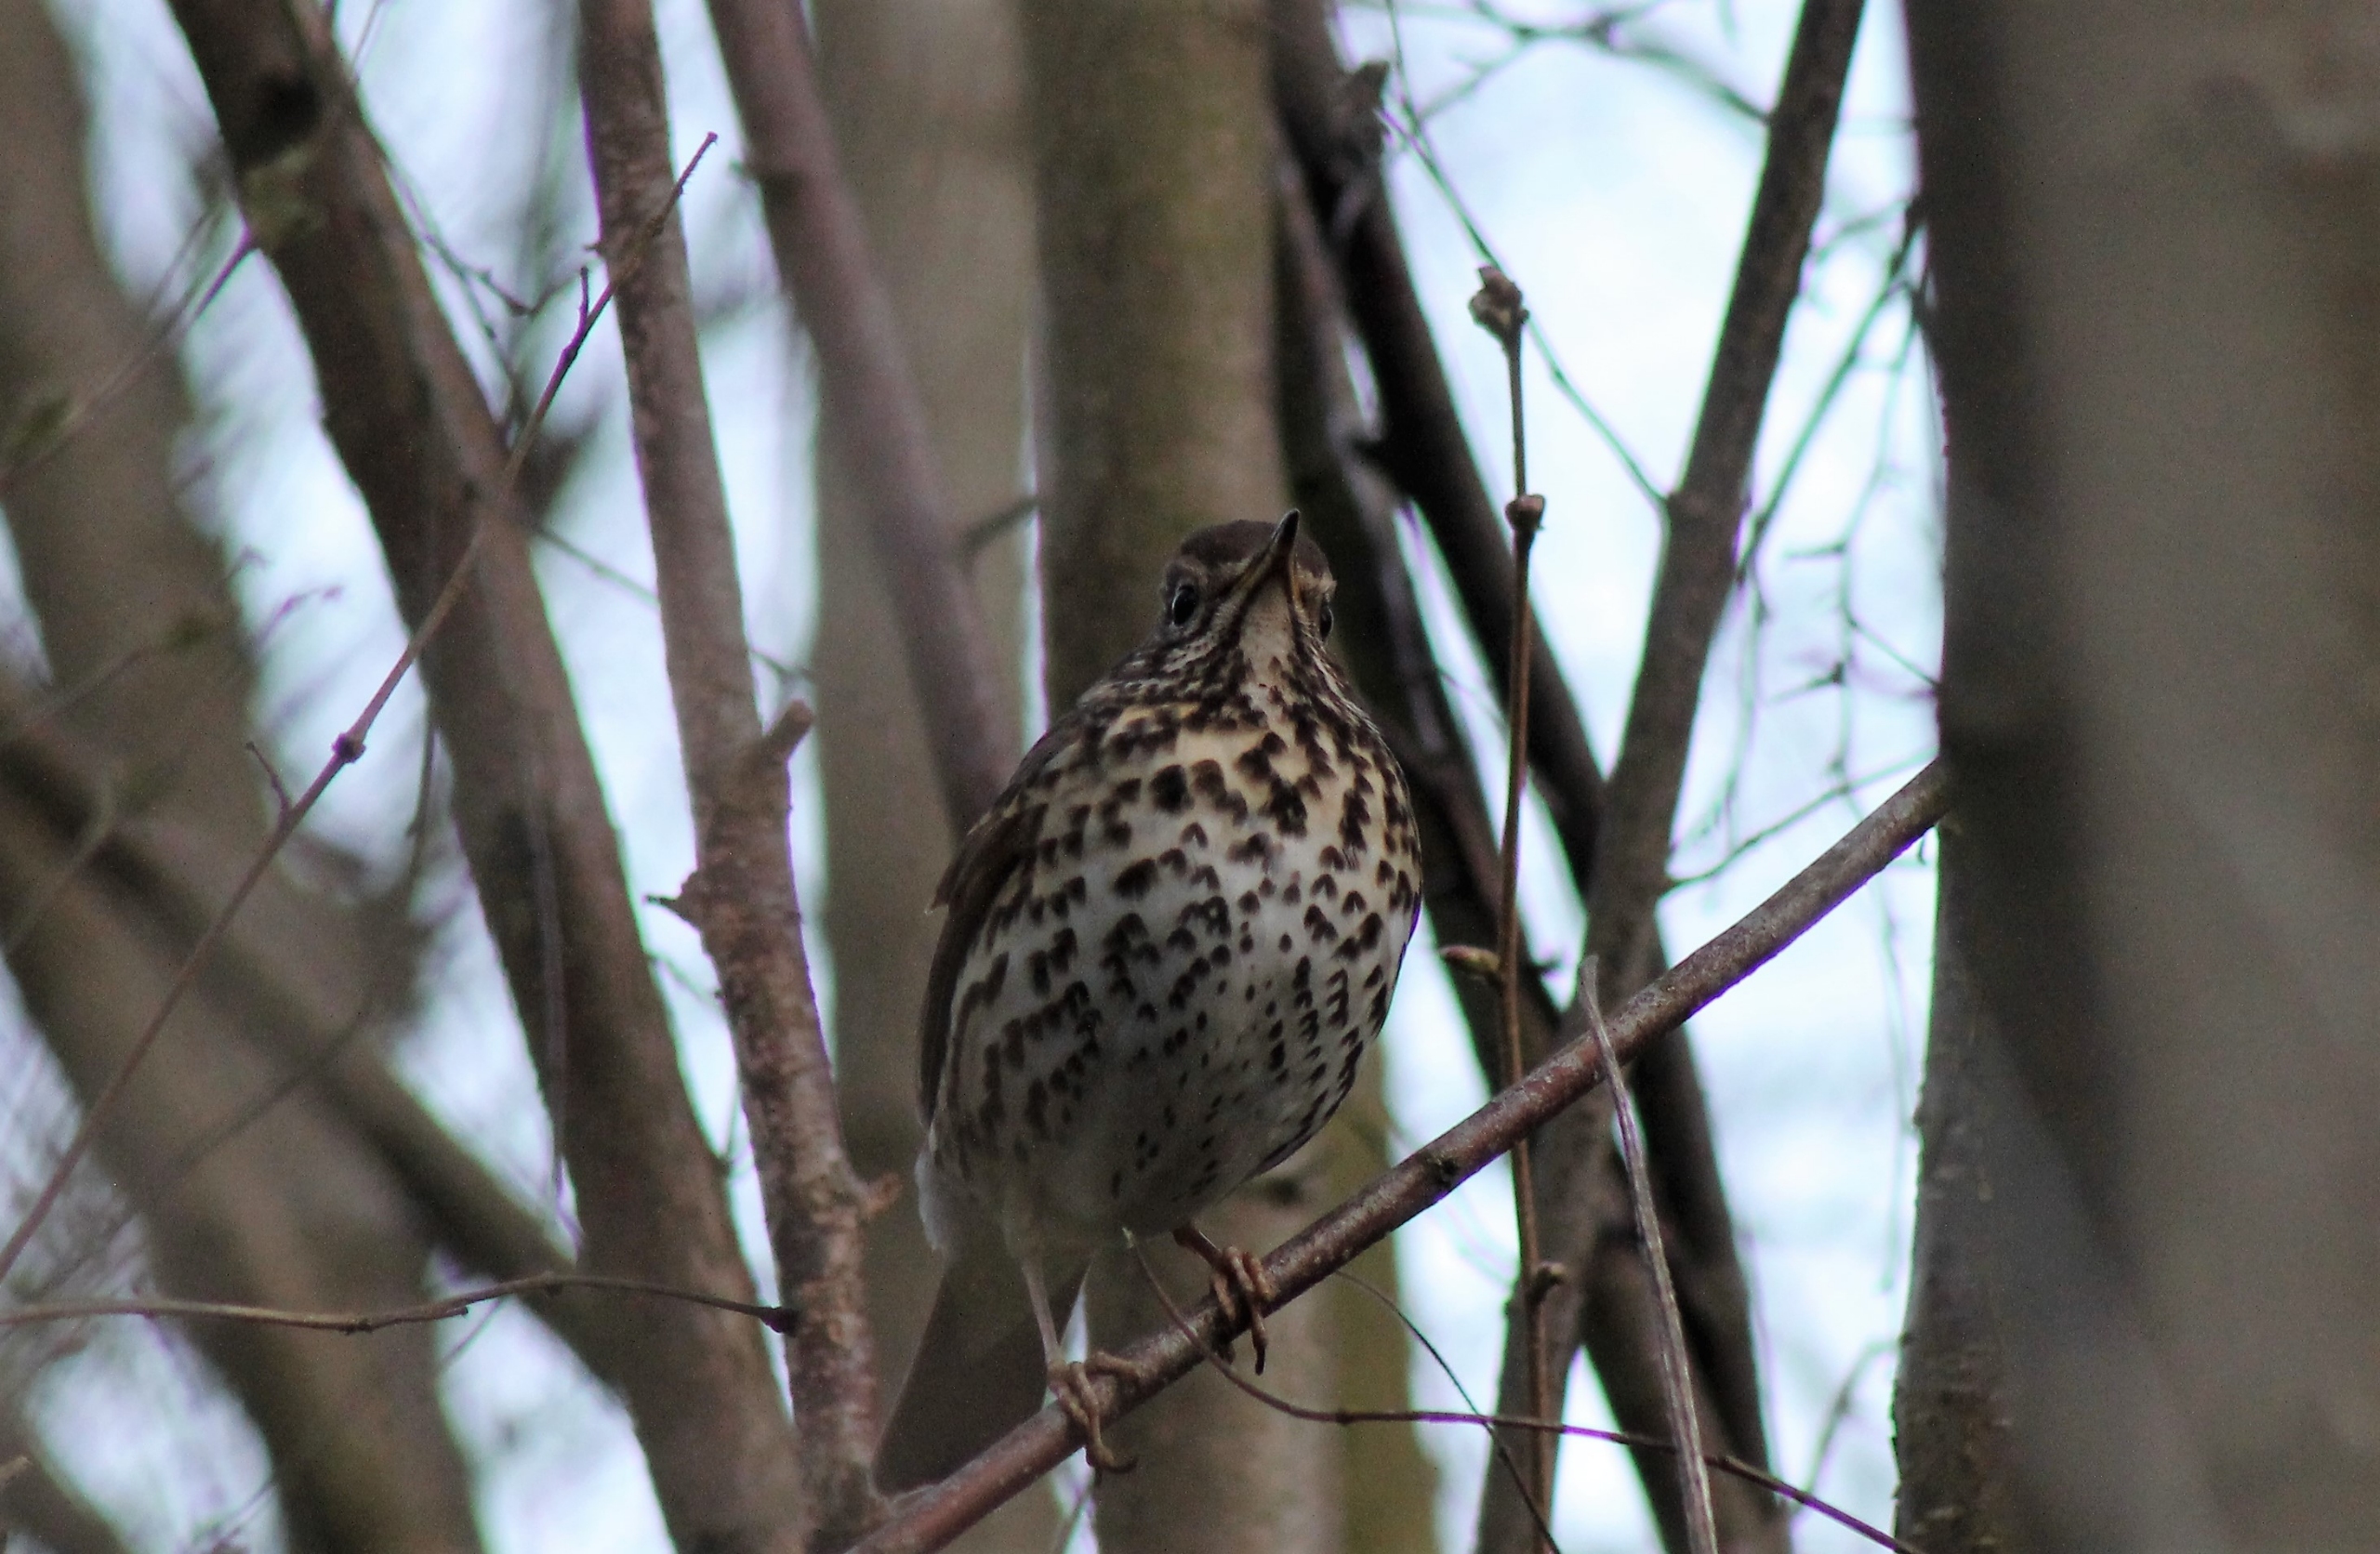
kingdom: Animalia
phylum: Chordata
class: Aves
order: Passeriformes
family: Turdidae
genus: Turdus
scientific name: Turdus philomelos
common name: Sangdrossel
